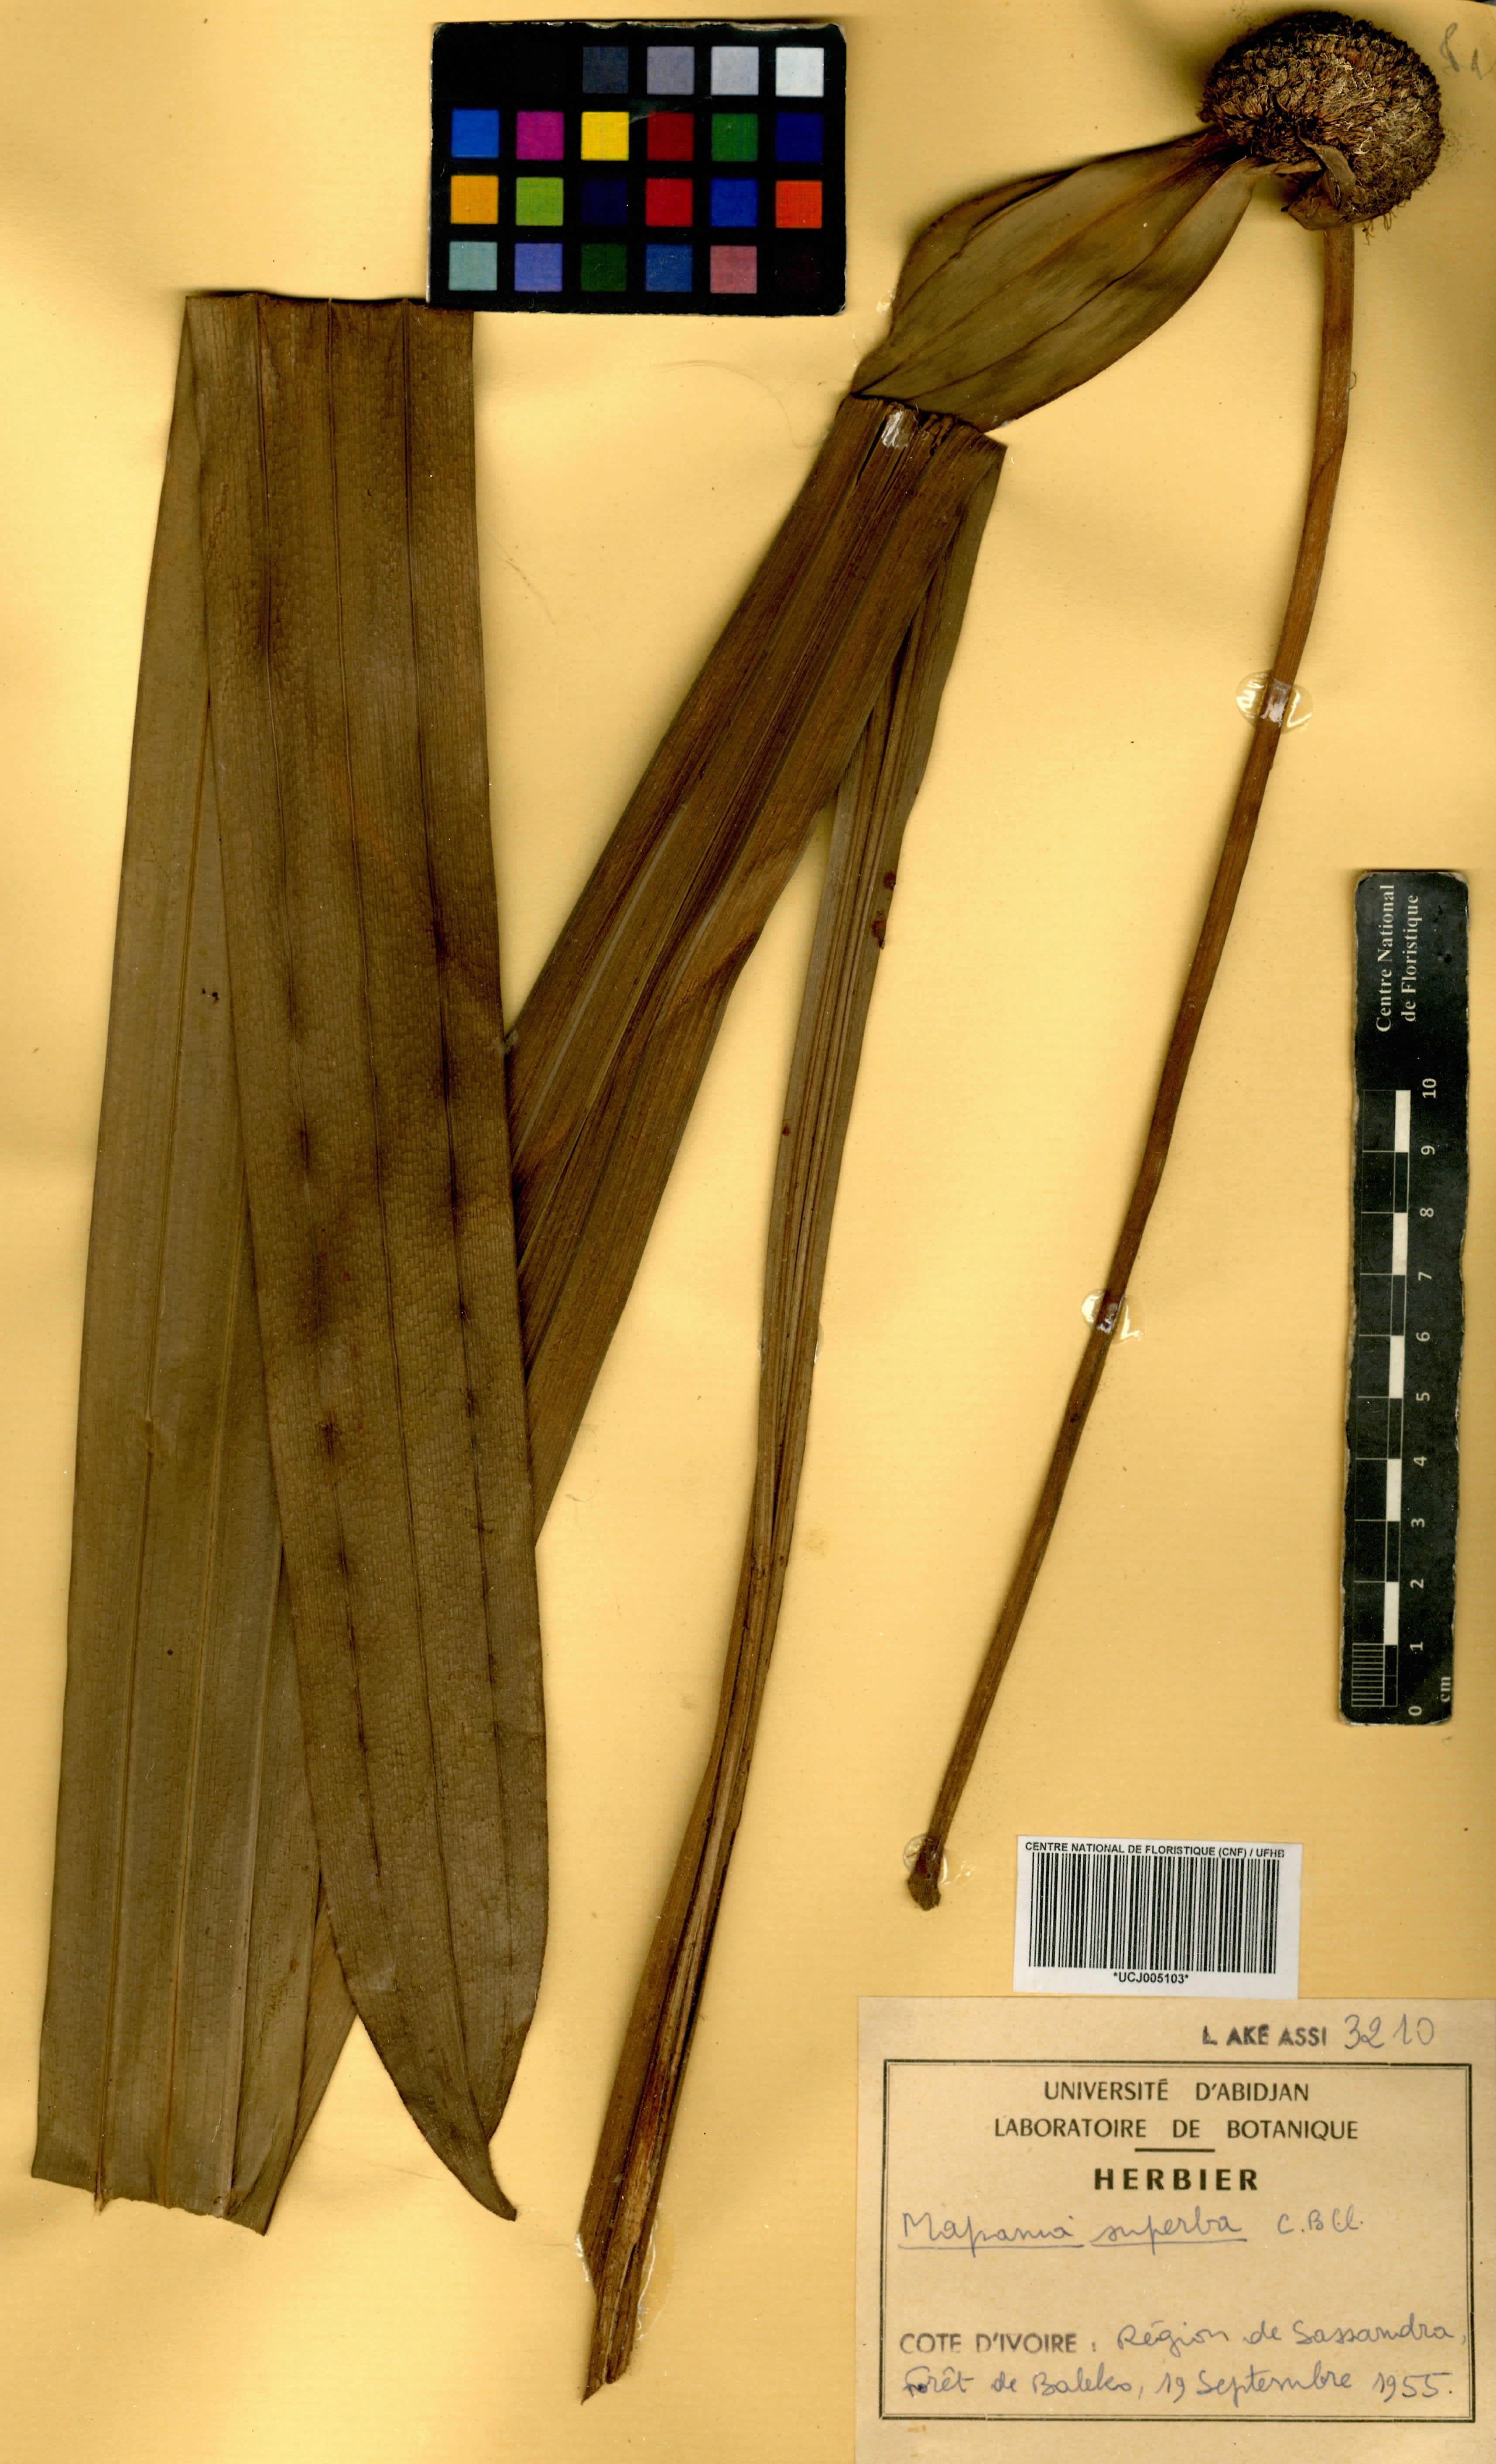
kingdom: Plantae
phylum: Tracheophyta
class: Liliopsida
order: Poales
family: Cyperaceae
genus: Mapania
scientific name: Mapania macrantha
